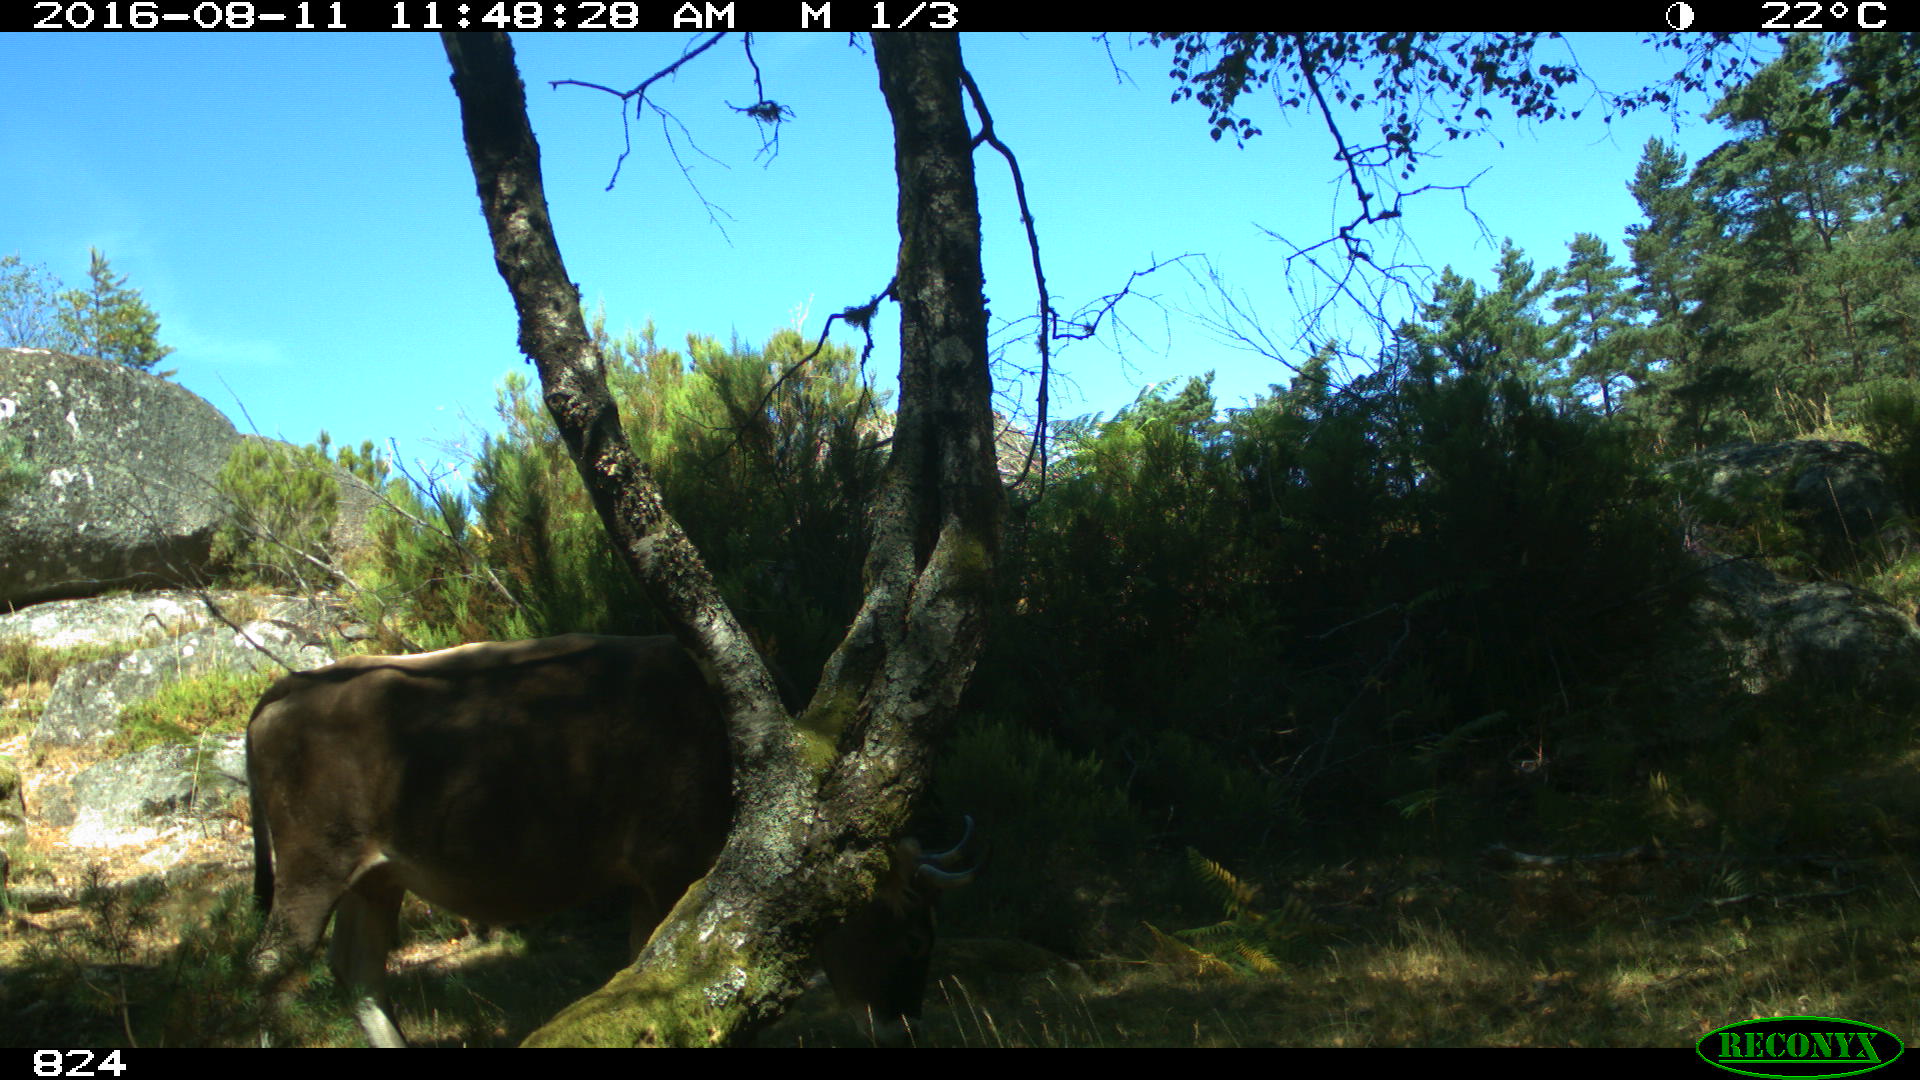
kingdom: Animalia
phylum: Chordata
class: Mammalia
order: Artiodactyla
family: Bovidae
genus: Bos
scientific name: Bos taurus
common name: Domesticated cattle
